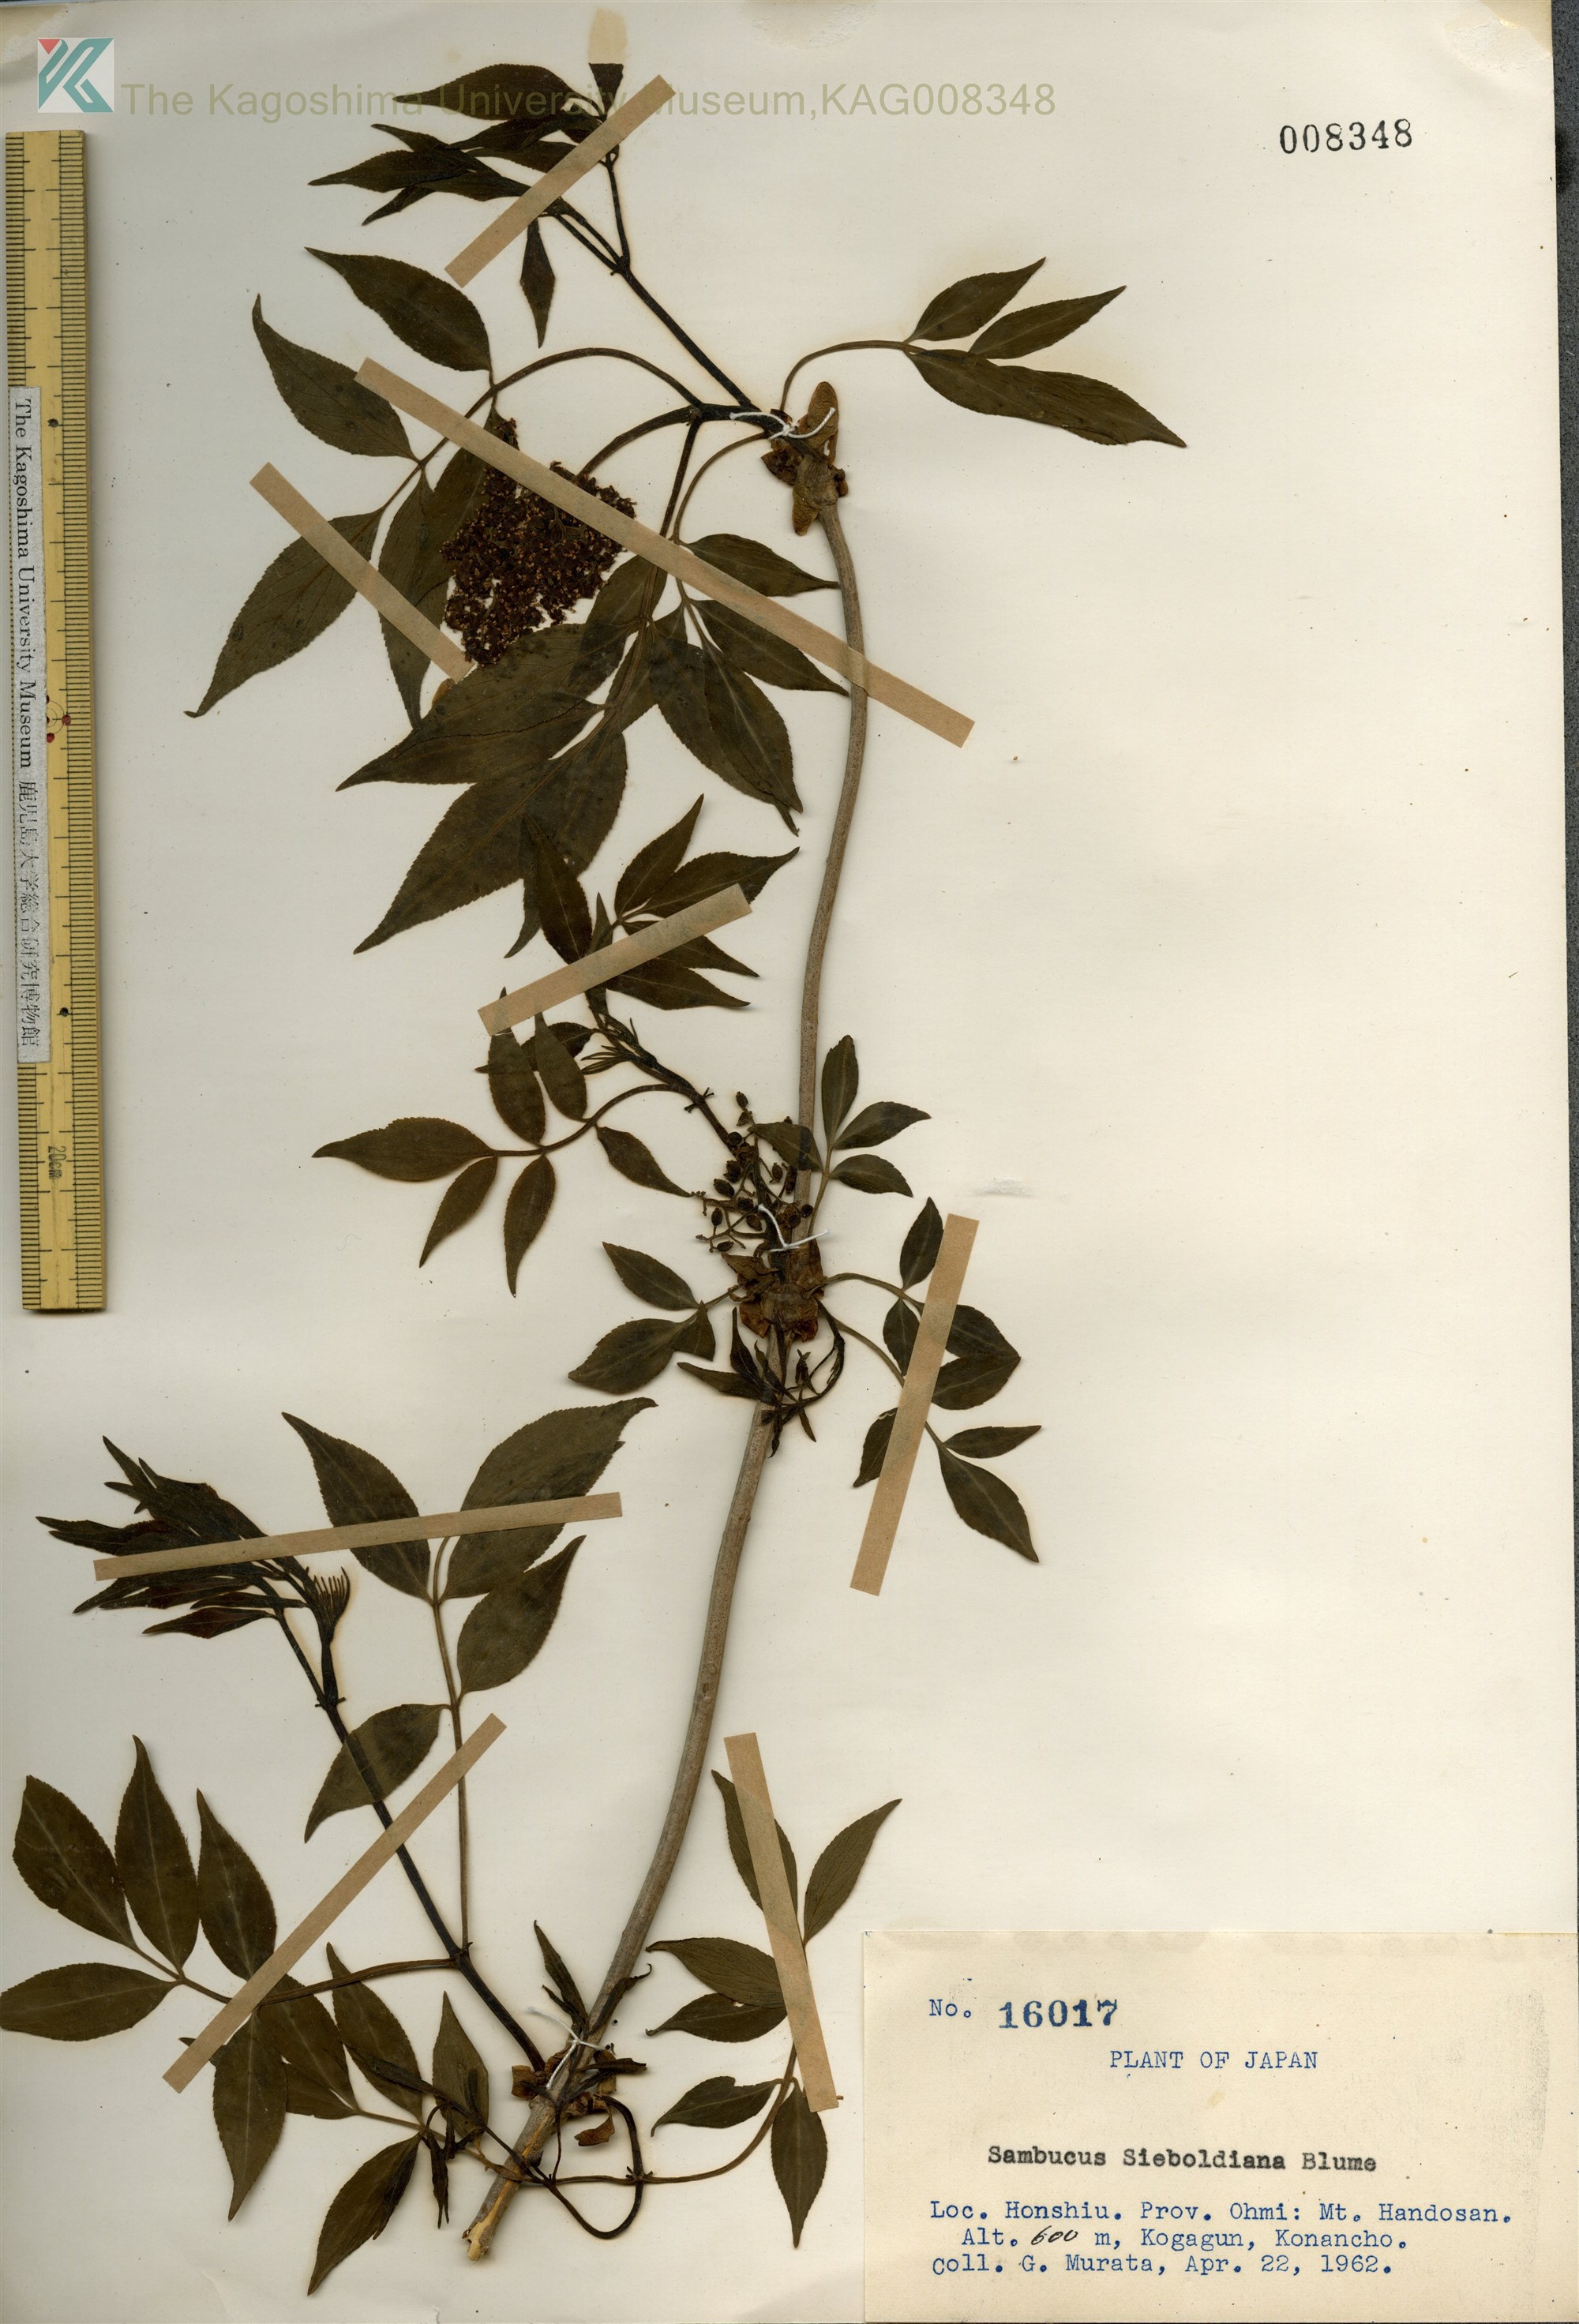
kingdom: Plantae
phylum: Tracheophyta
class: Magnoliopsida
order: Dipsacales
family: Viburnaceae
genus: Sambucus
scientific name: Sambucus sieboldiana
